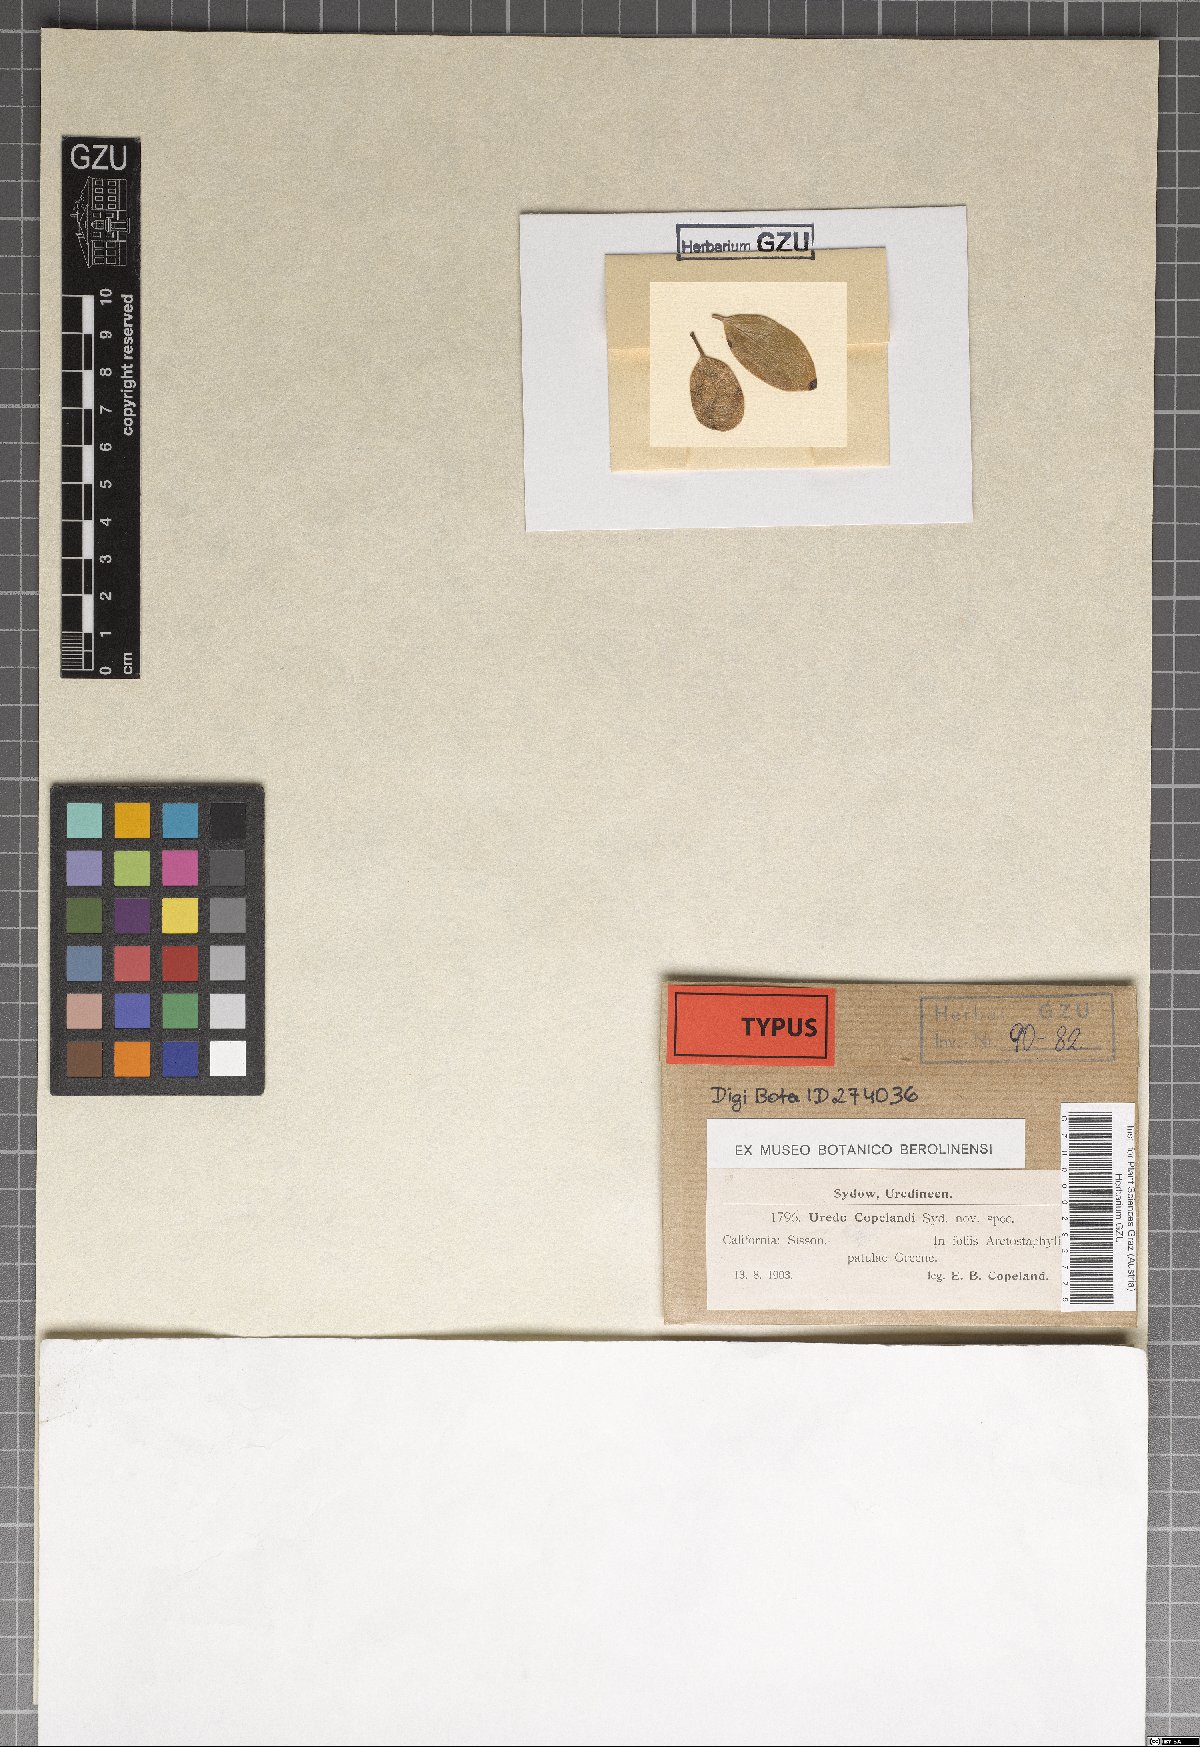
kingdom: Fungi
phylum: Basidiomycota
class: Pucciniomycetes
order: Pucciniales
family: Pucciniaceae
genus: Uredo
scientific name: Uredo copelandii
